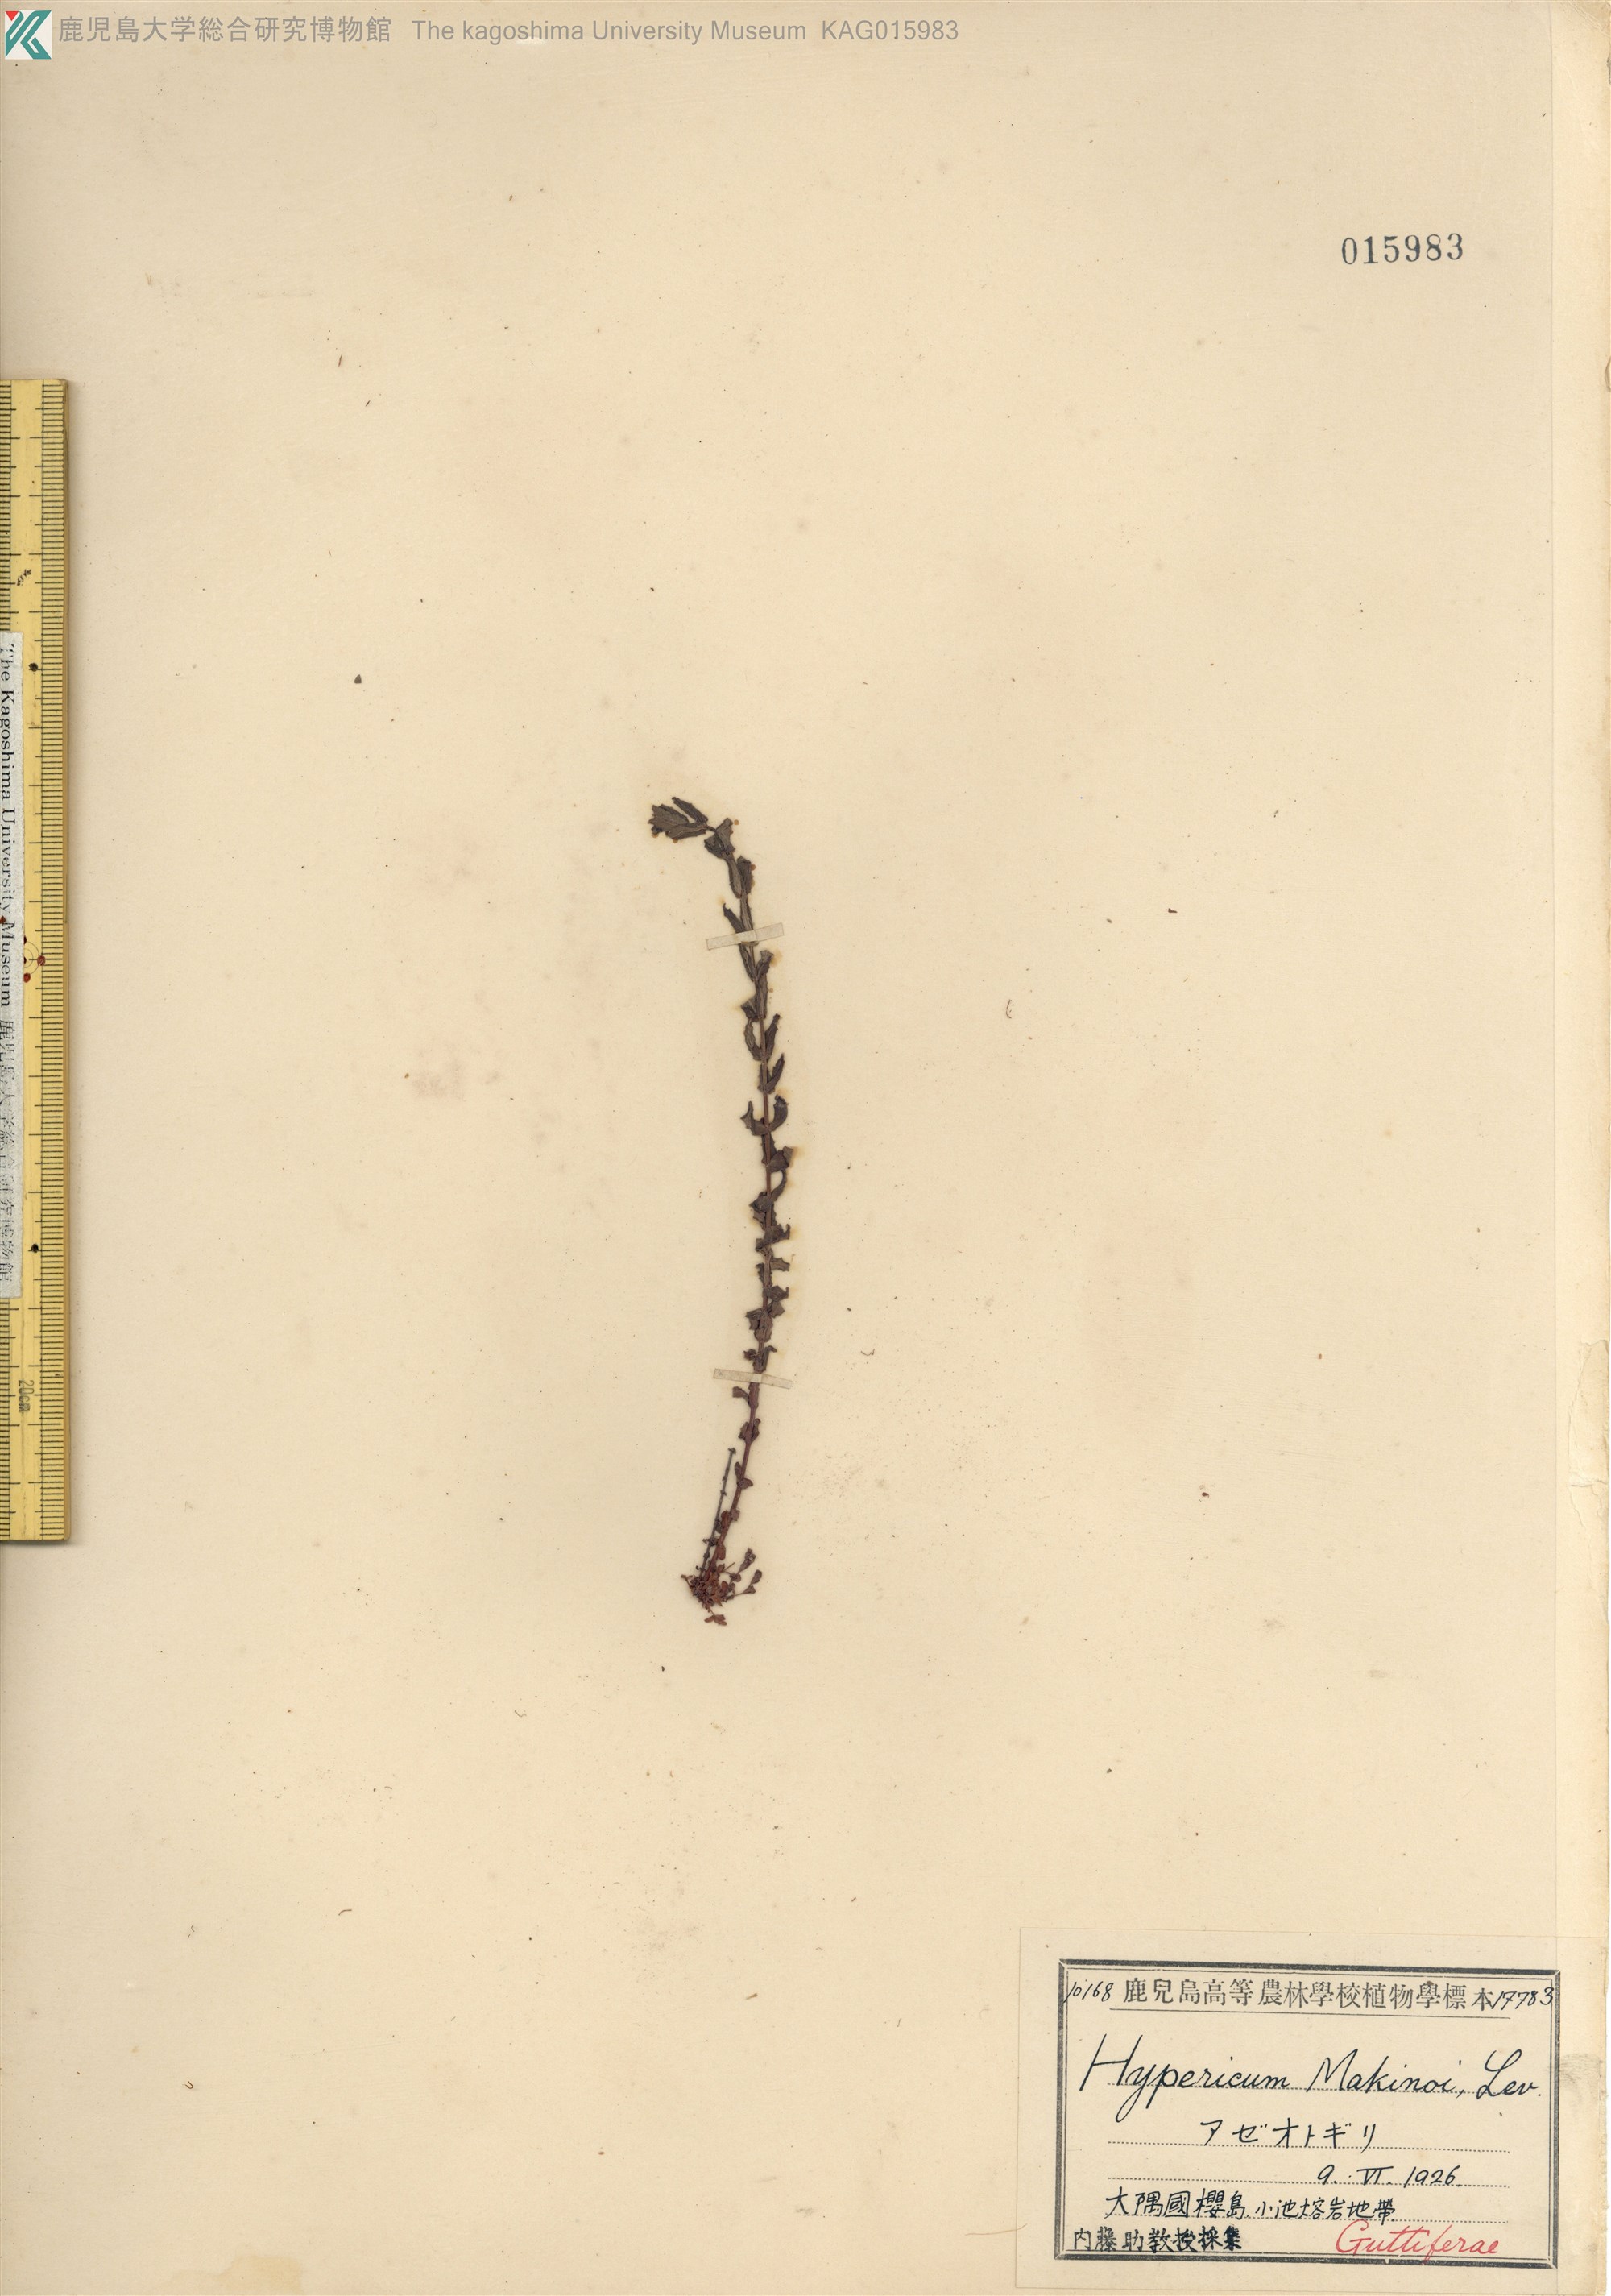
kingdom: Plantae
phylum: Tracheophyta
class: Magnoliopsida
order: Malpighiales
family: Hypericaceae
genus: Hypericum
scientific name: Hypericum japonicum
